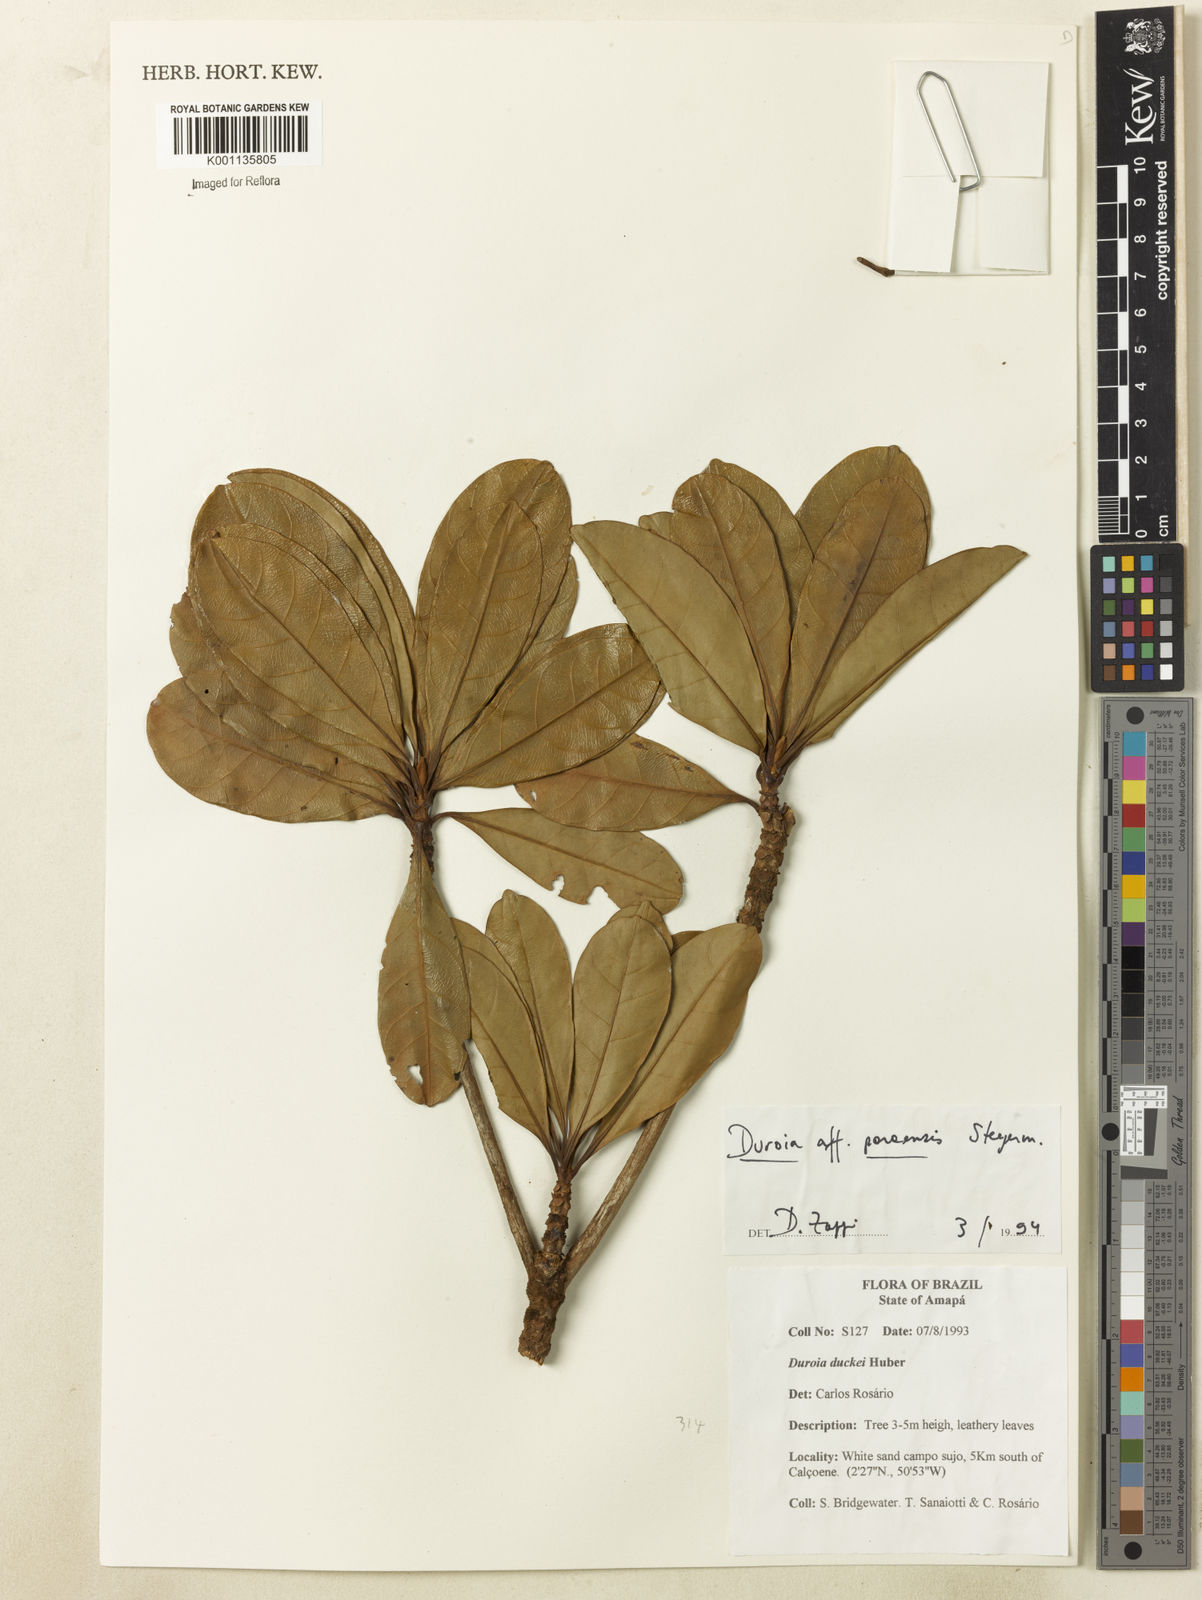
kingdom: Plantae
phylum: Tracheophyta
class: Magnoliopsida
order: Gentianales
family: Rubiaceae
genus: Duroia
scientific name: Duroia paraensis
